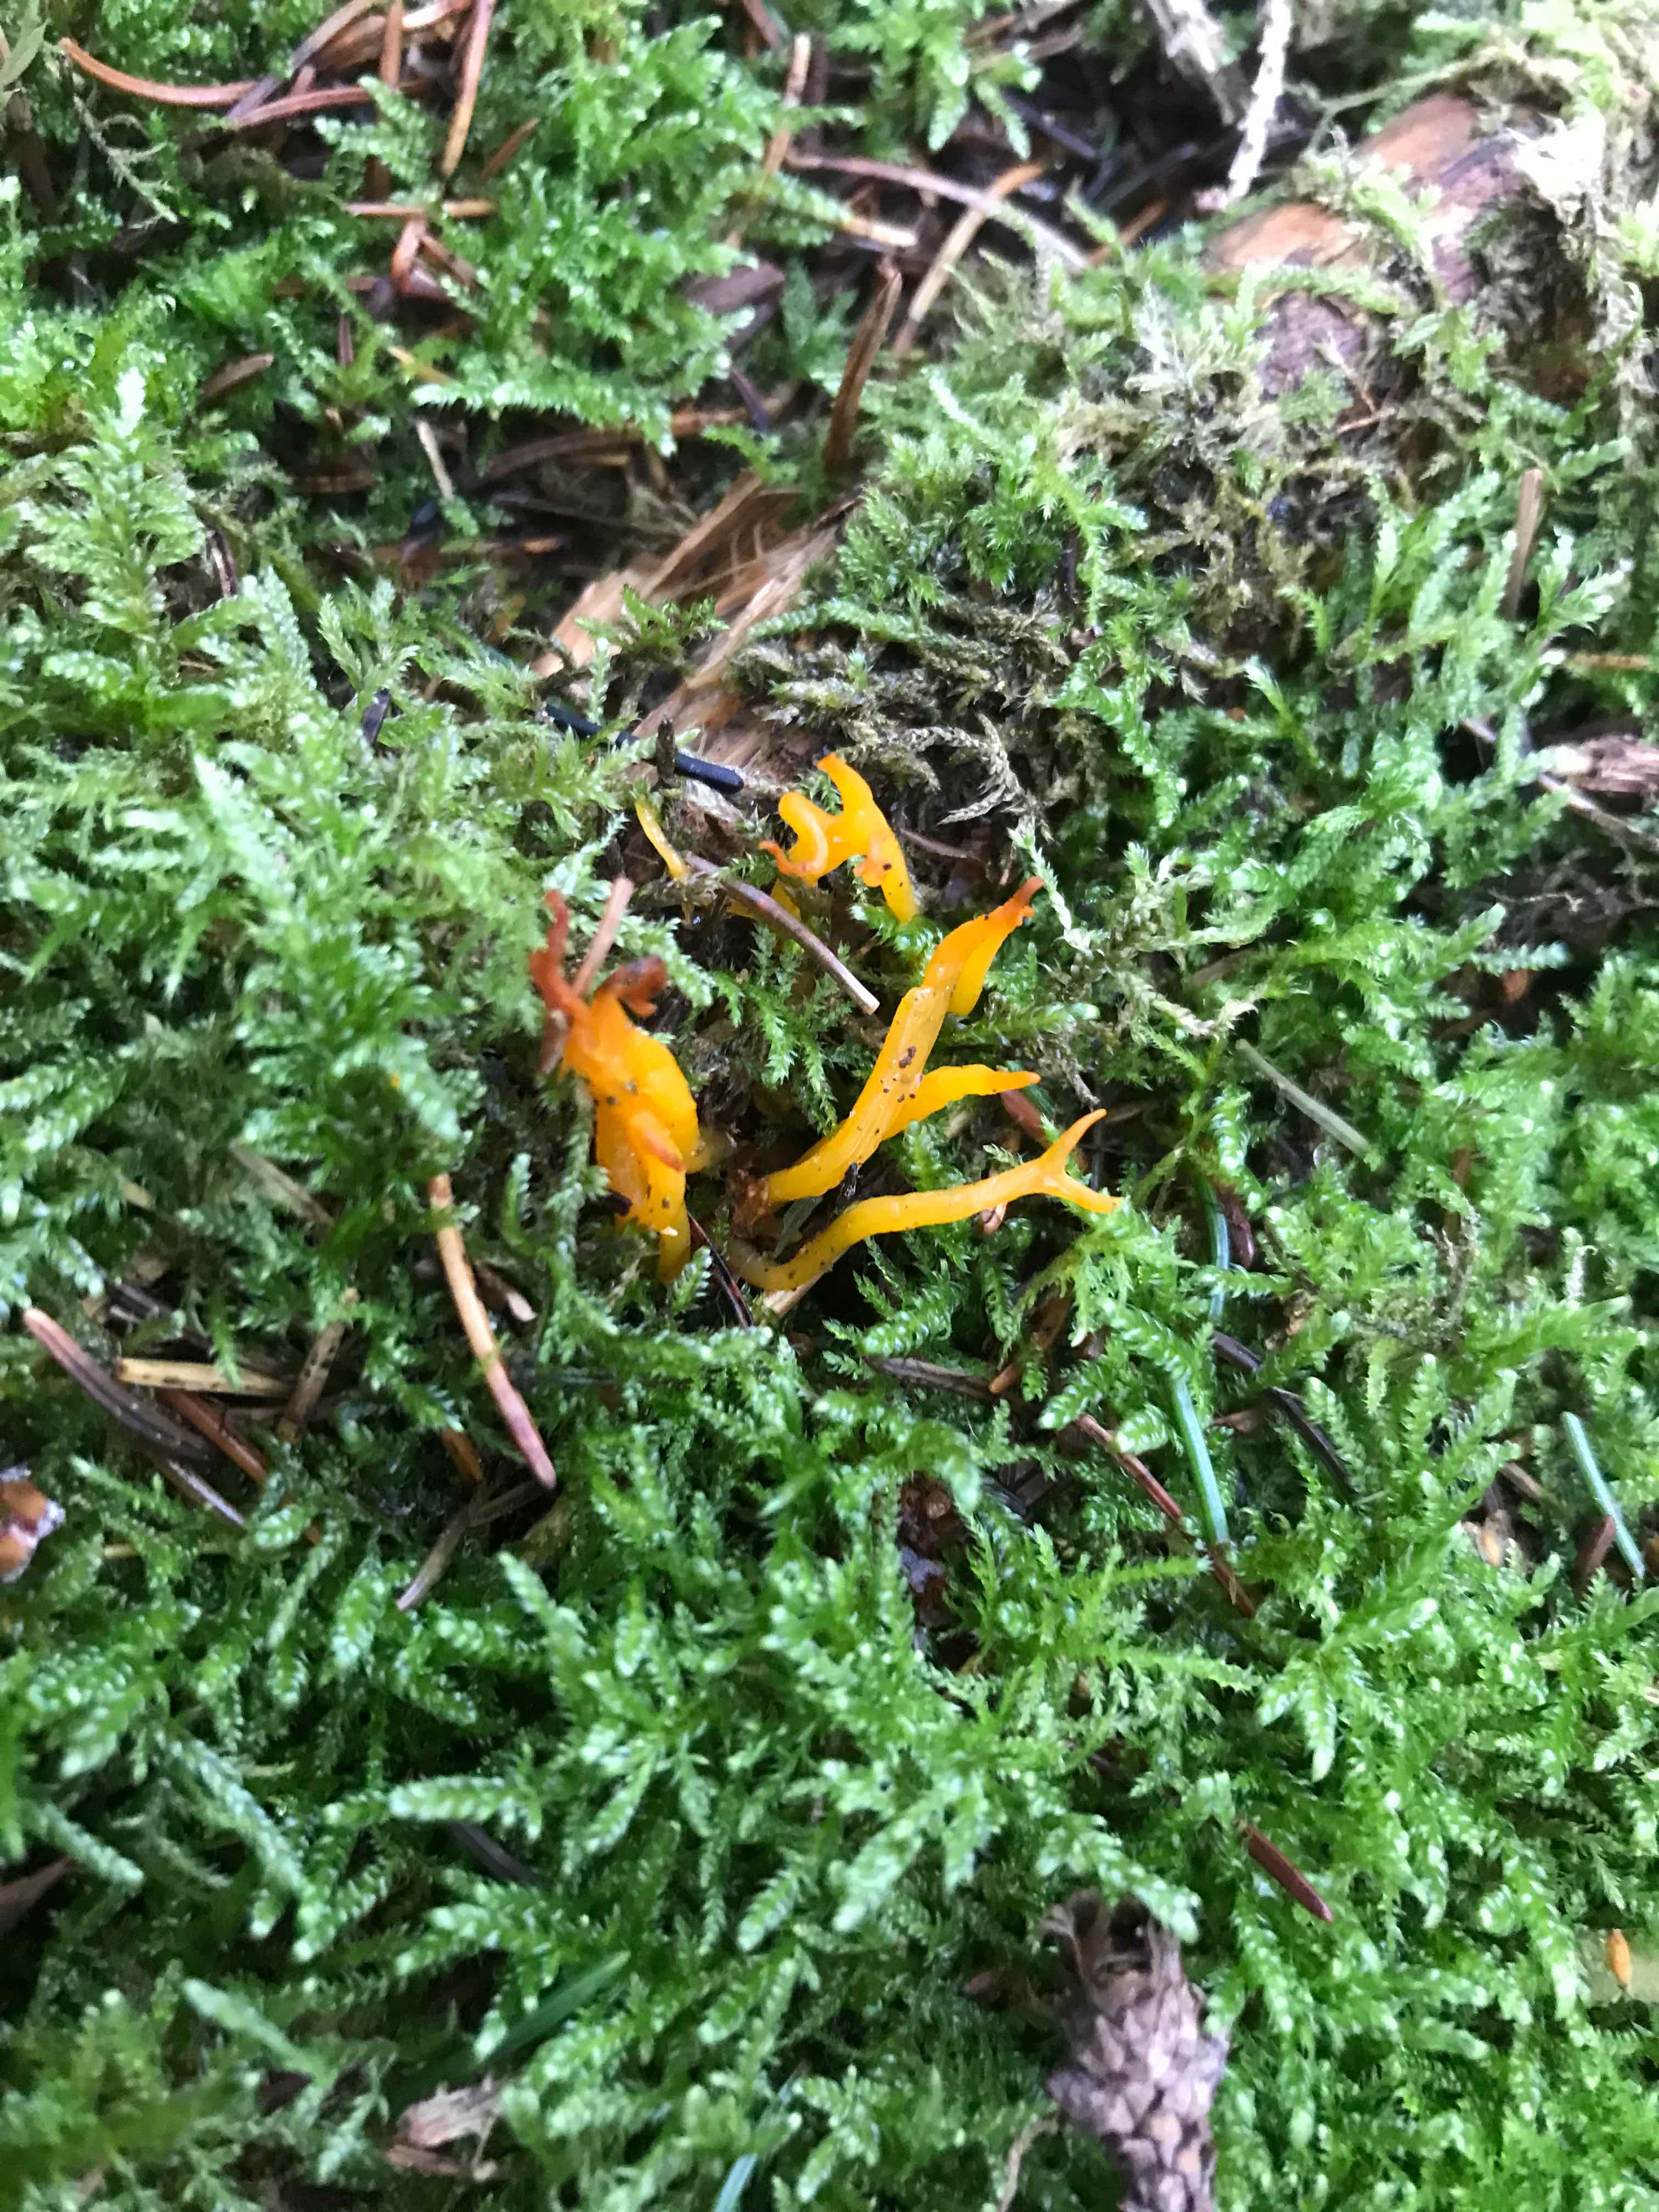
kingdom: Fungi
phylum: Basidiomycota
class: Dacrymycetes
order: Dacrymycetales
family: Dacrymycetaceae
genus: Calocera
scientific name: Calocera viscosa
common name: almindelig guldgaffel
